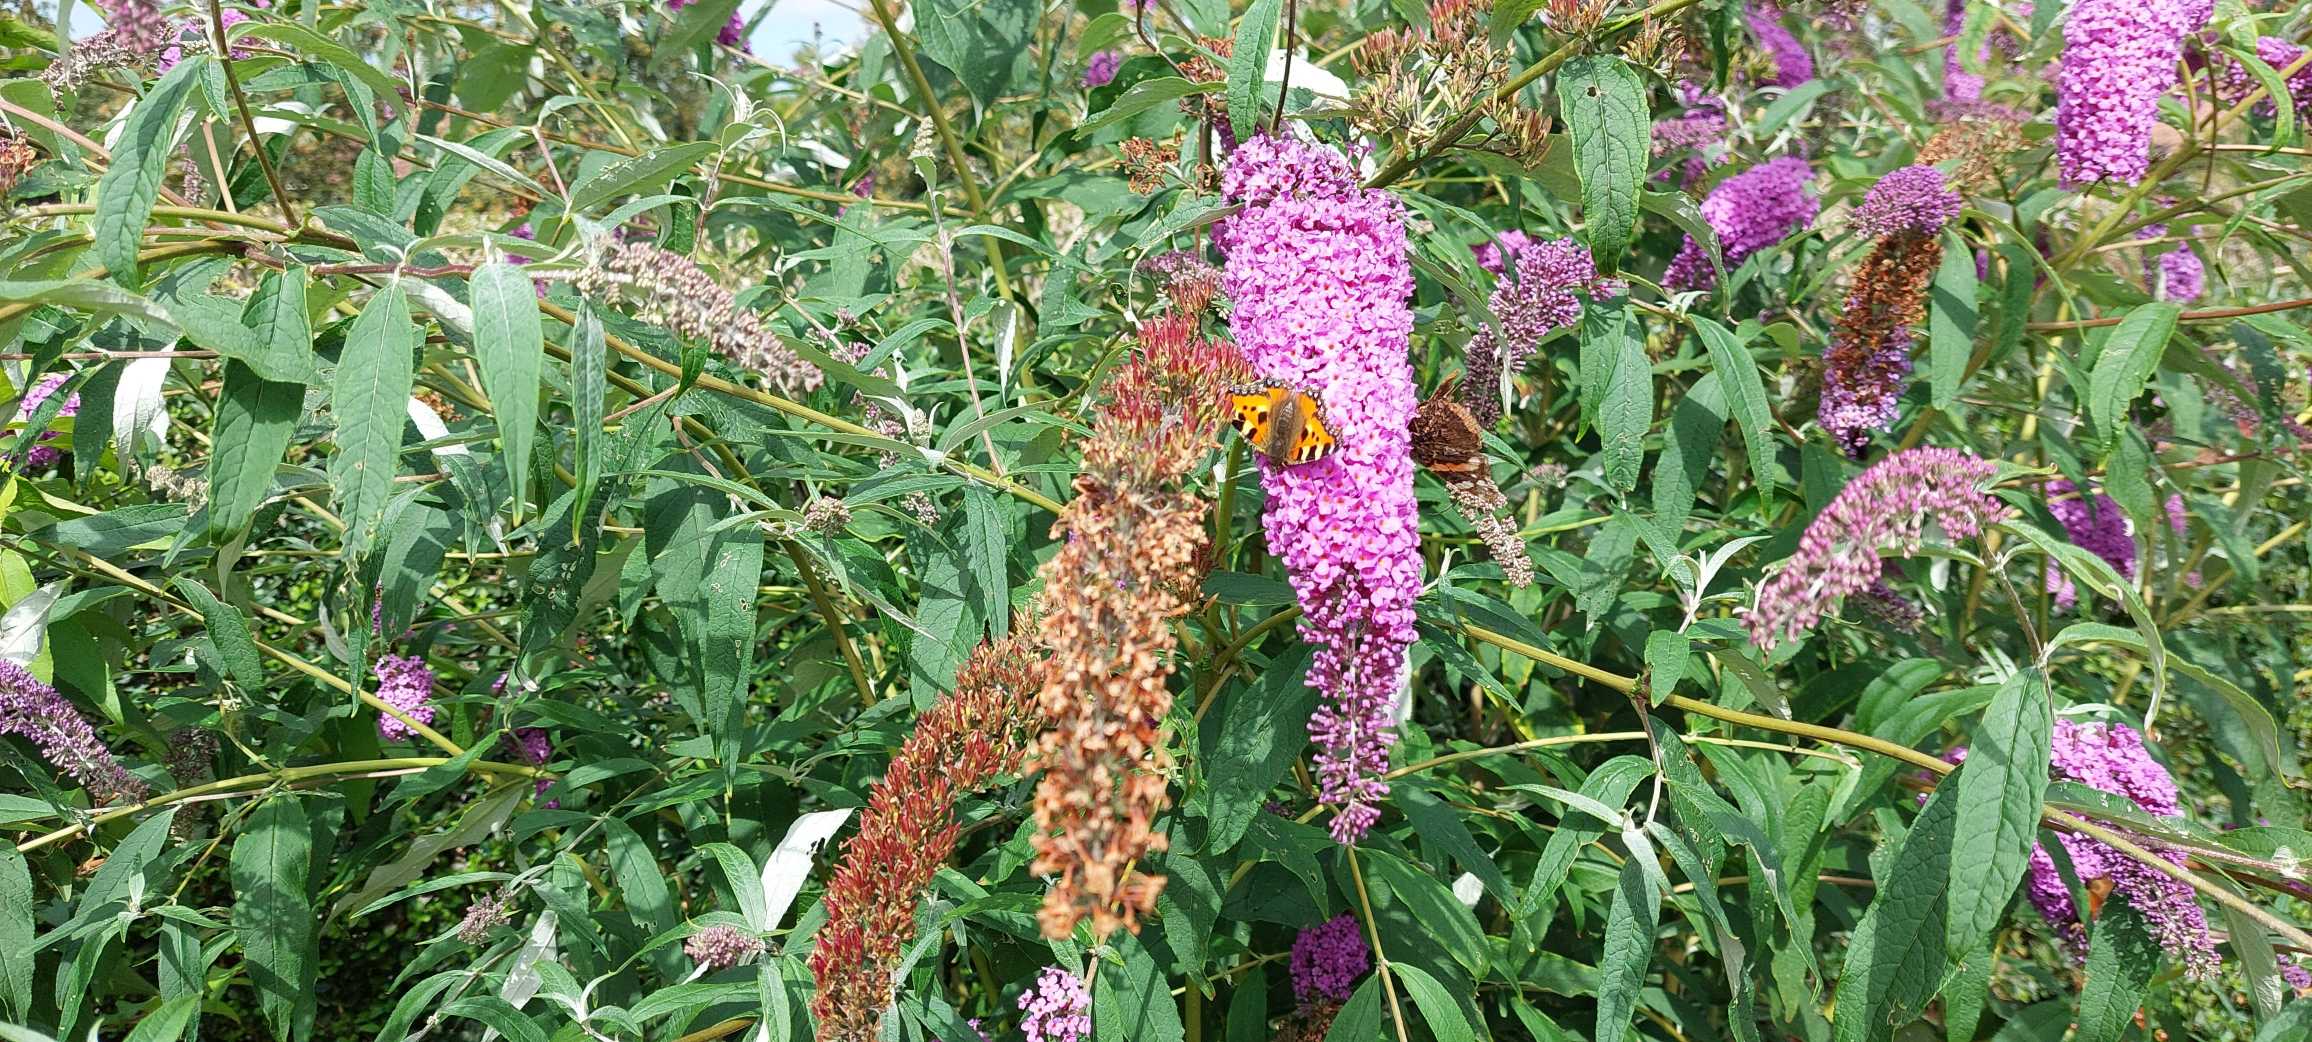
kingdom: Animalia
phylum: Arthropoda
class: Insecta
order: Lepidoptera
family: Nymphalidae
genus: Aglais
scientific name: Aglais urticae
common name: Nældens takvinge
